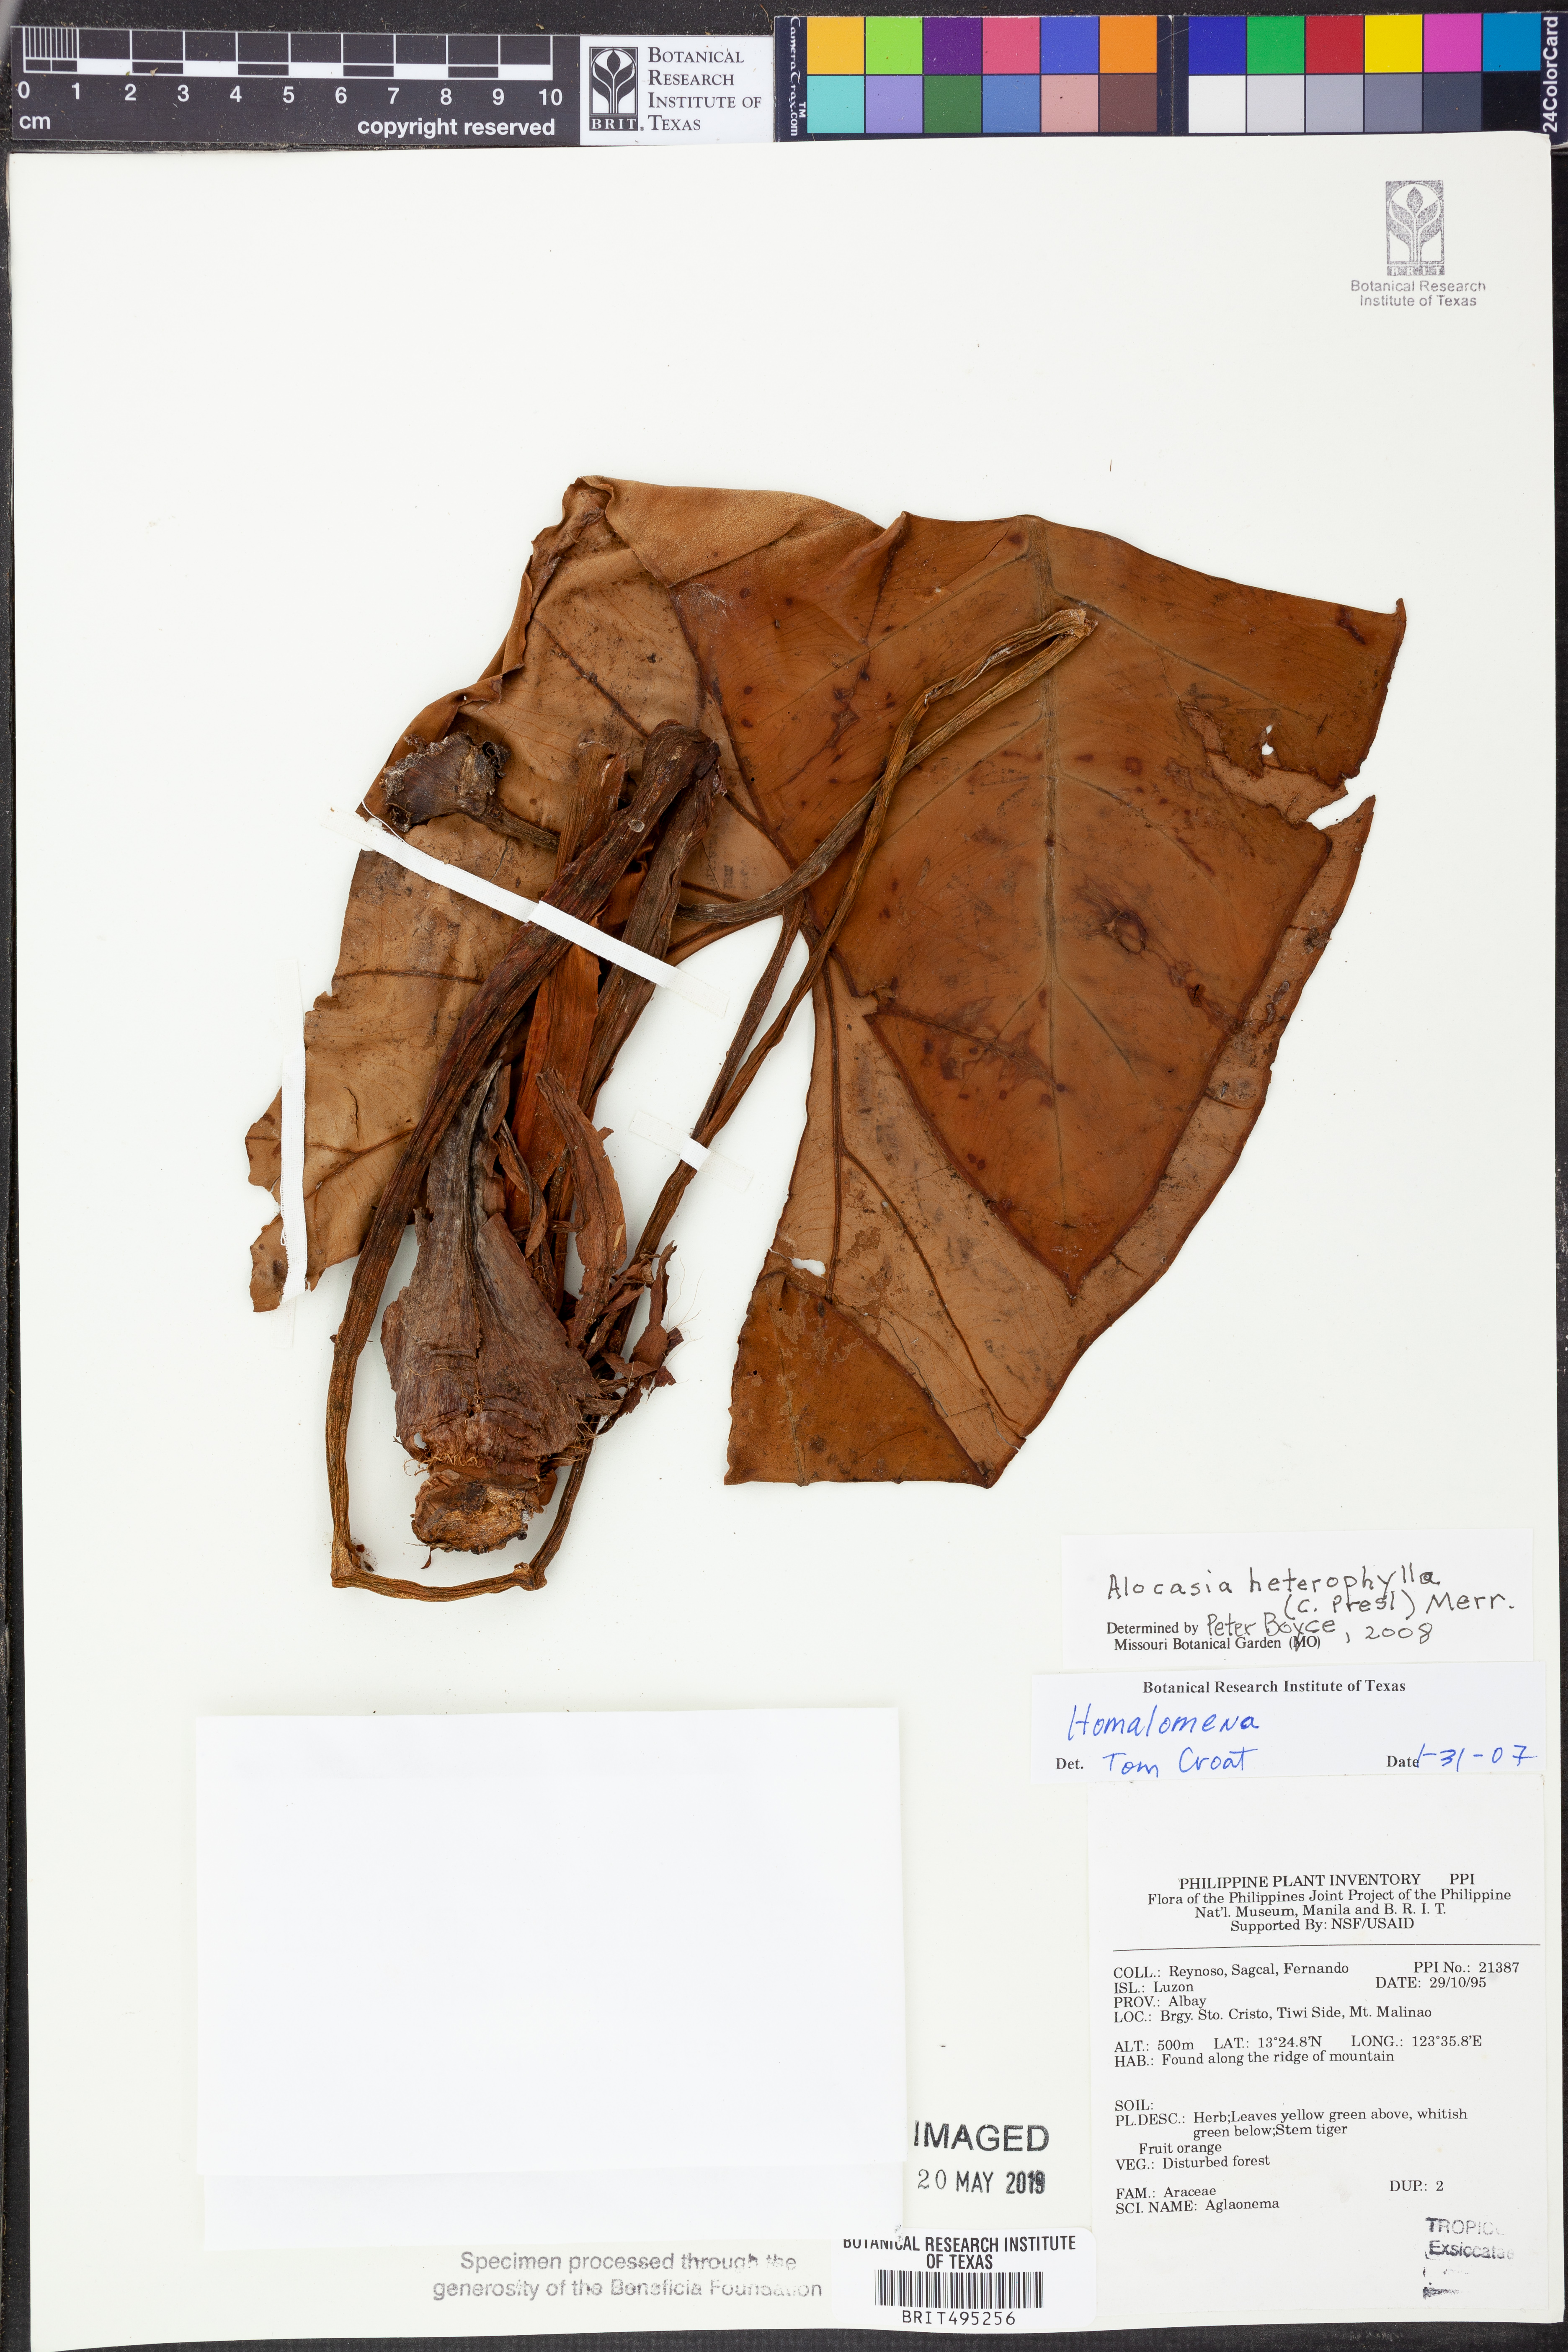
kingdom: Plantae
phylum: Tracheophyta
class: Liliopsida
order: Alismatales
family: Araceae
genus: Alocasia
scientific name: Alocasia heterophylla
